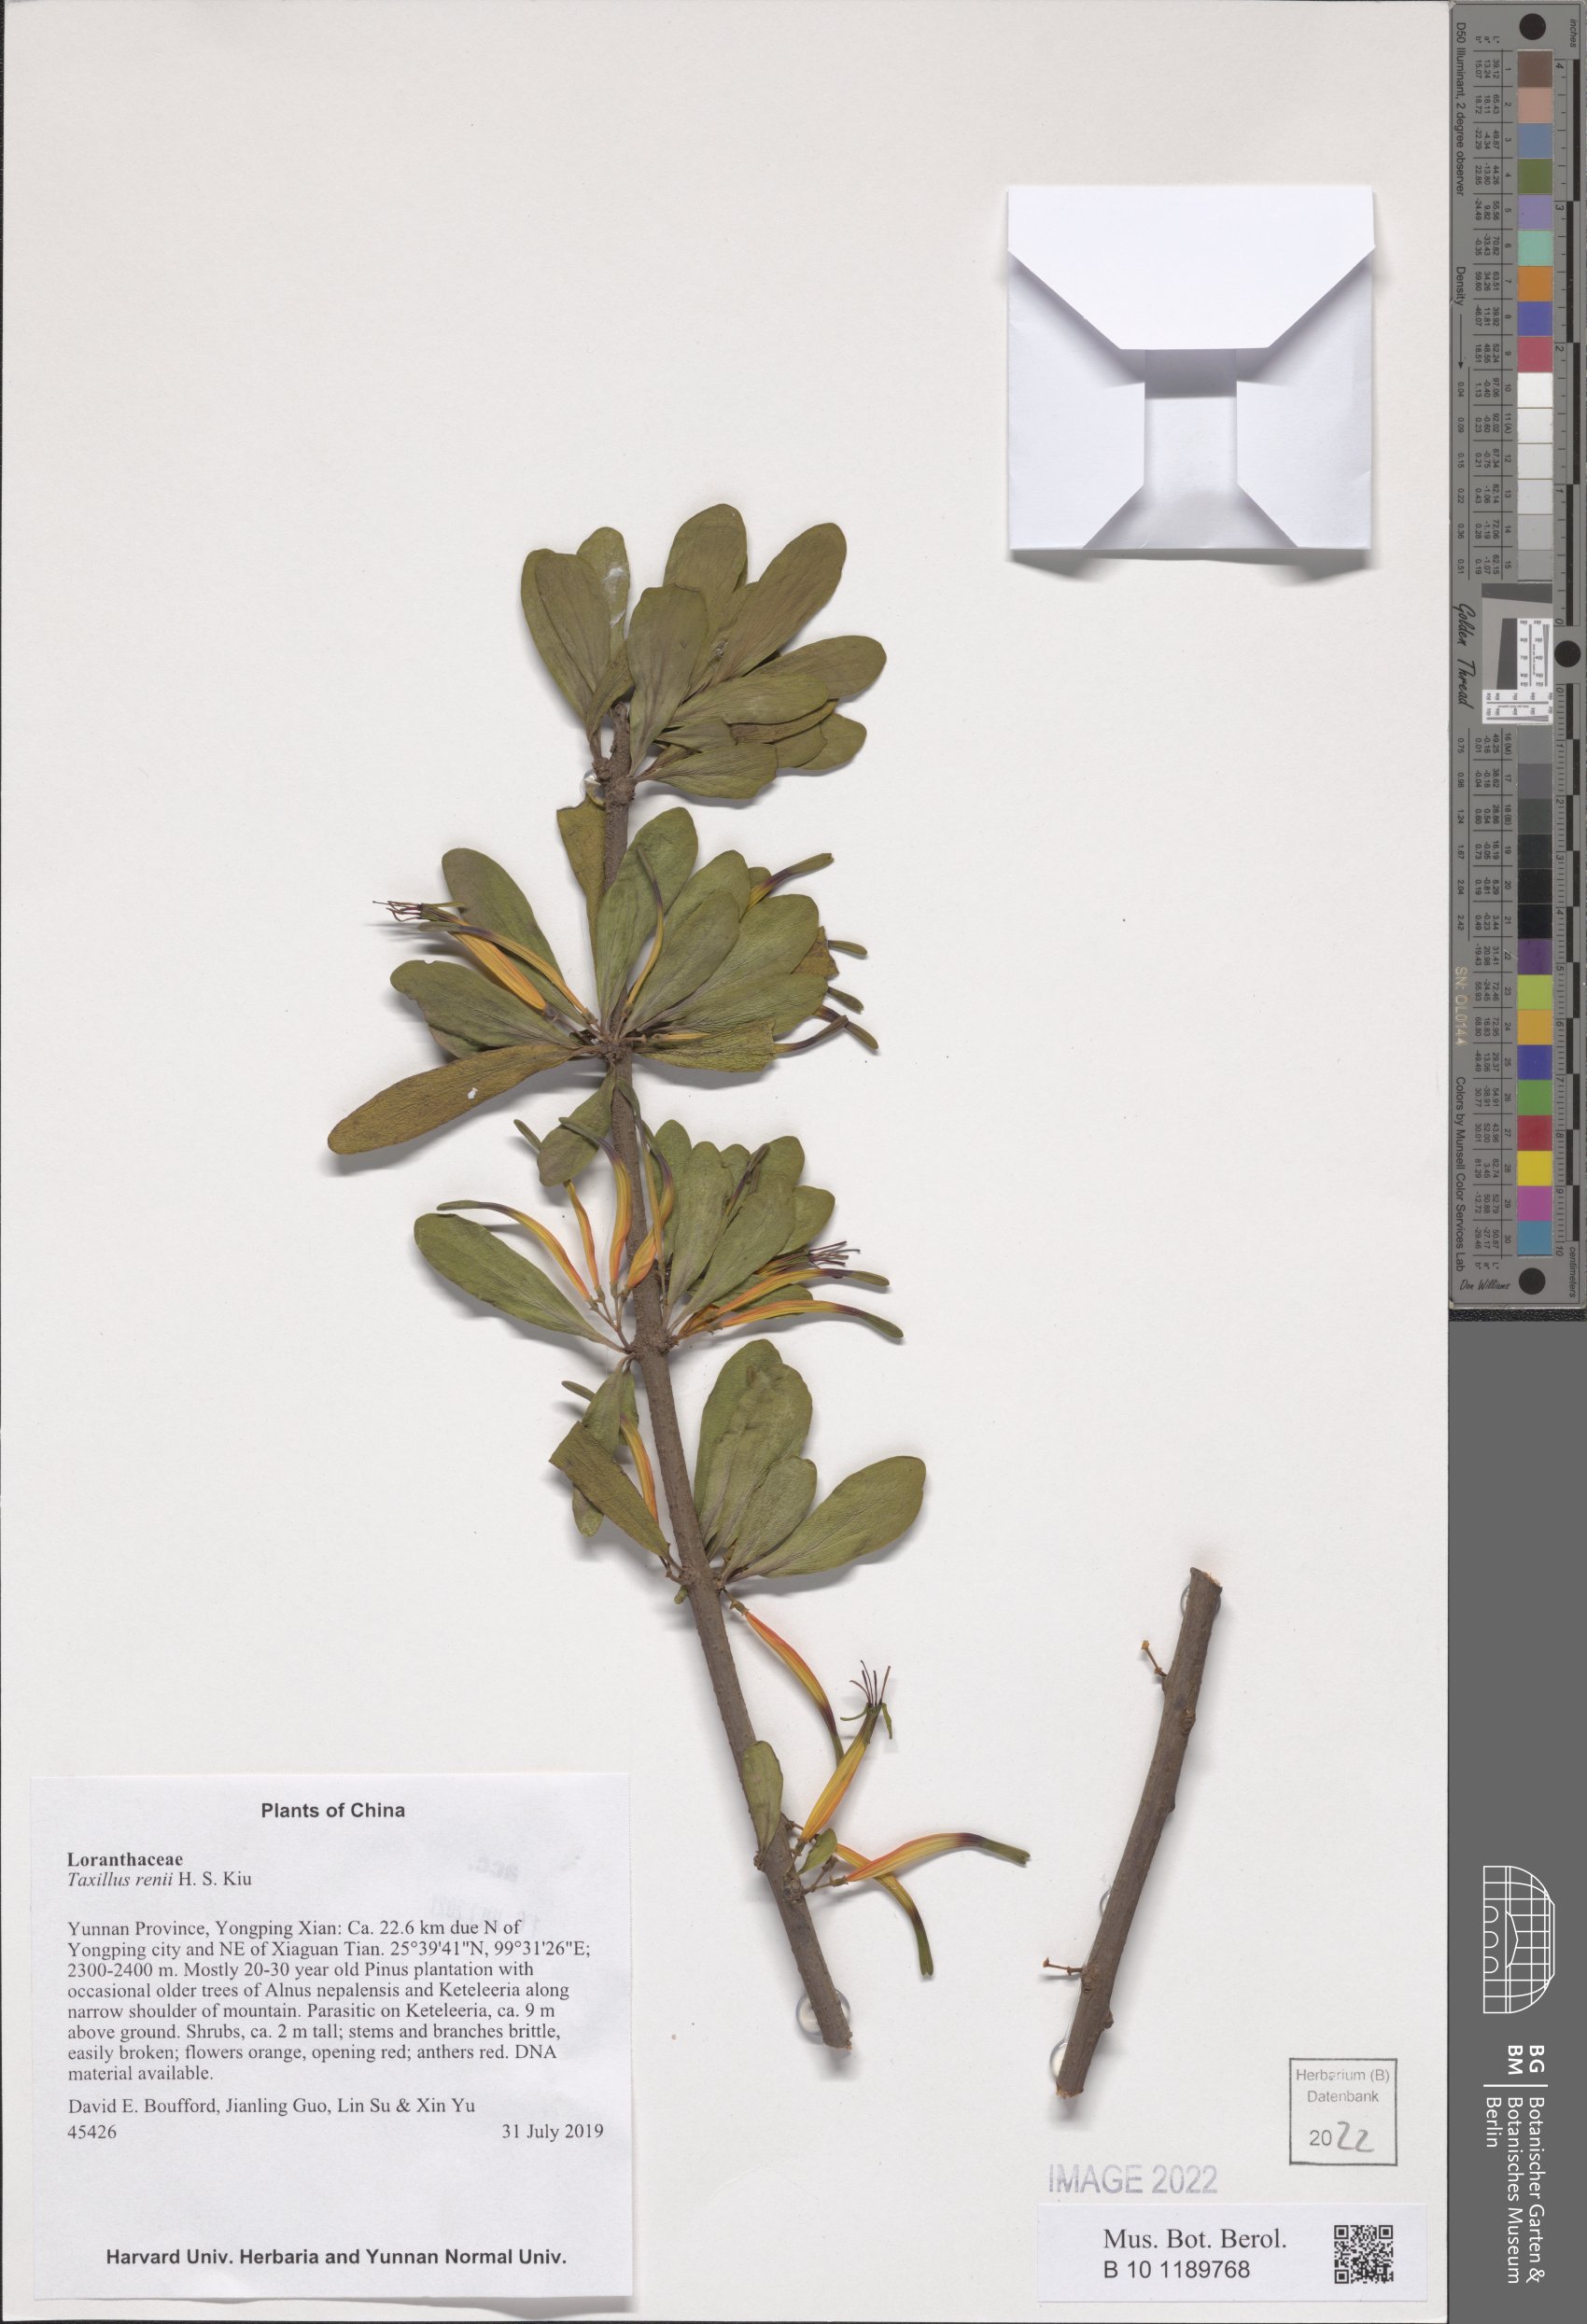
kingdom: Plantae
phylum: Tracheophyta
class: Magnoliopsida
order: Santalales
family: Loranthaceae
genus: Taxillus
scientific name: Taxillus renii
